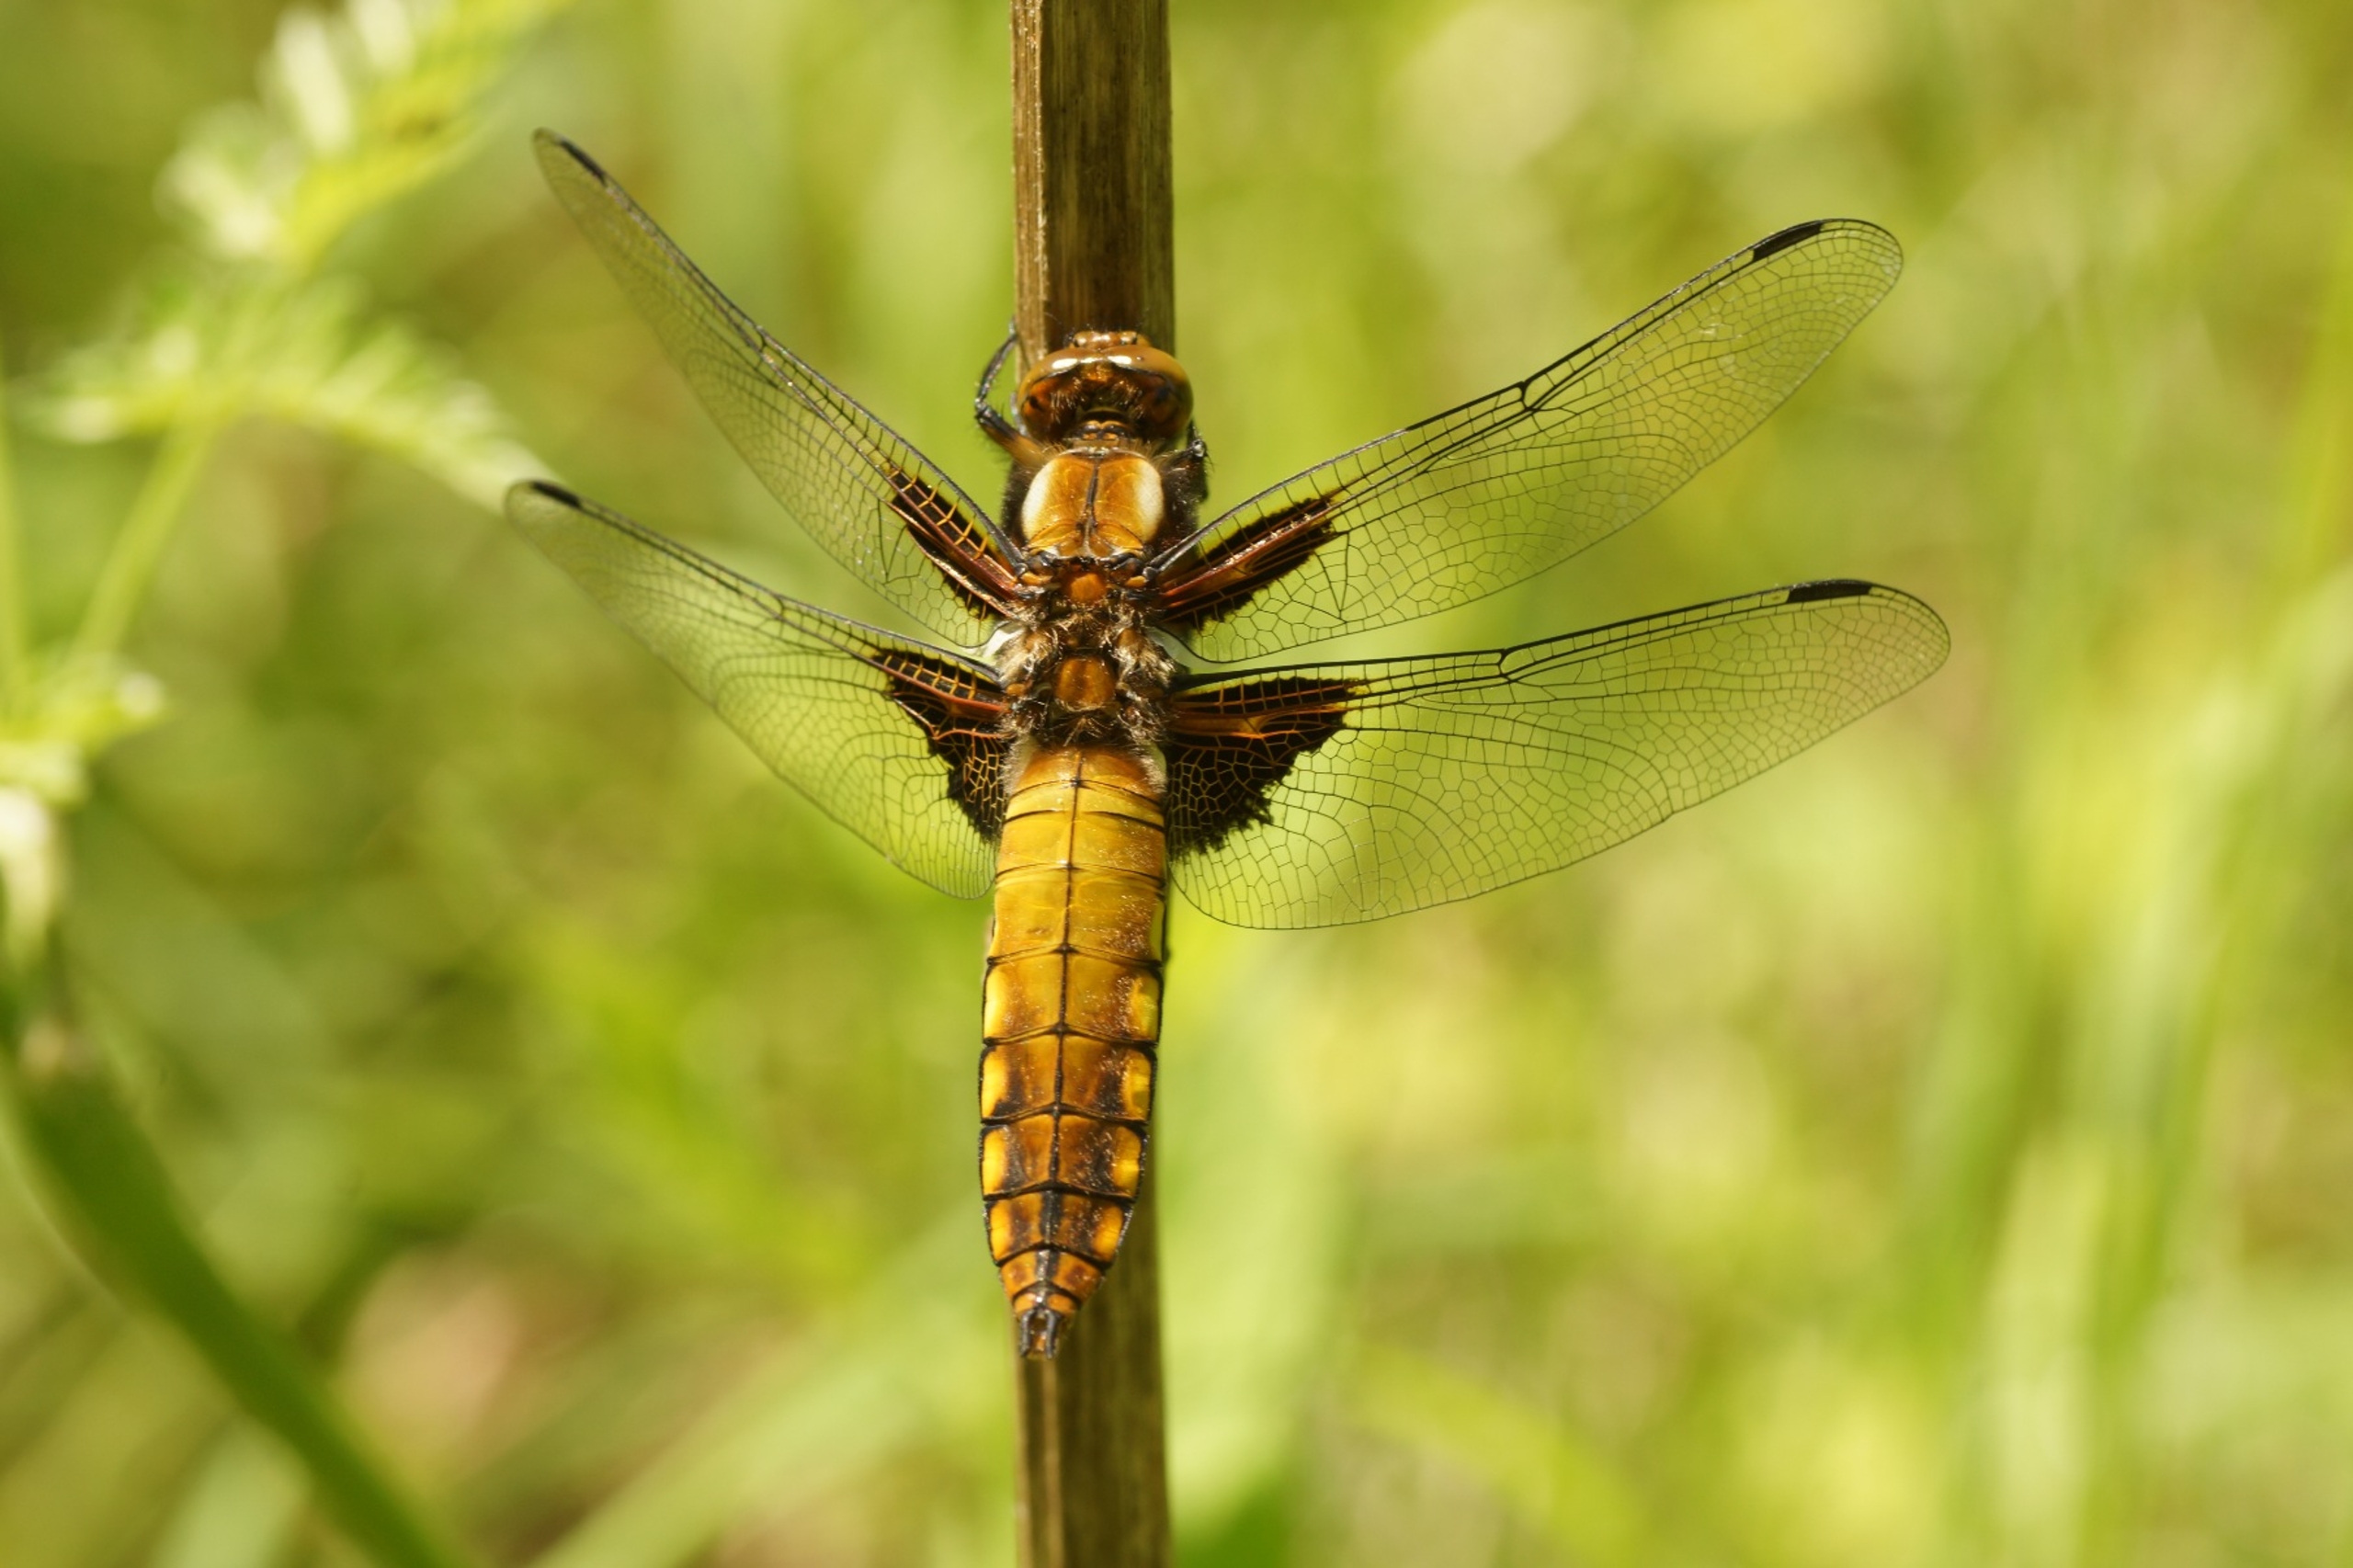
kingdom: Animalia
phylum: Arthropoda
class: Insecta
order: Odonata
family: Libellulidae
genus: Libellula
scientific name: Libellula depressa
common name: Blå libel
